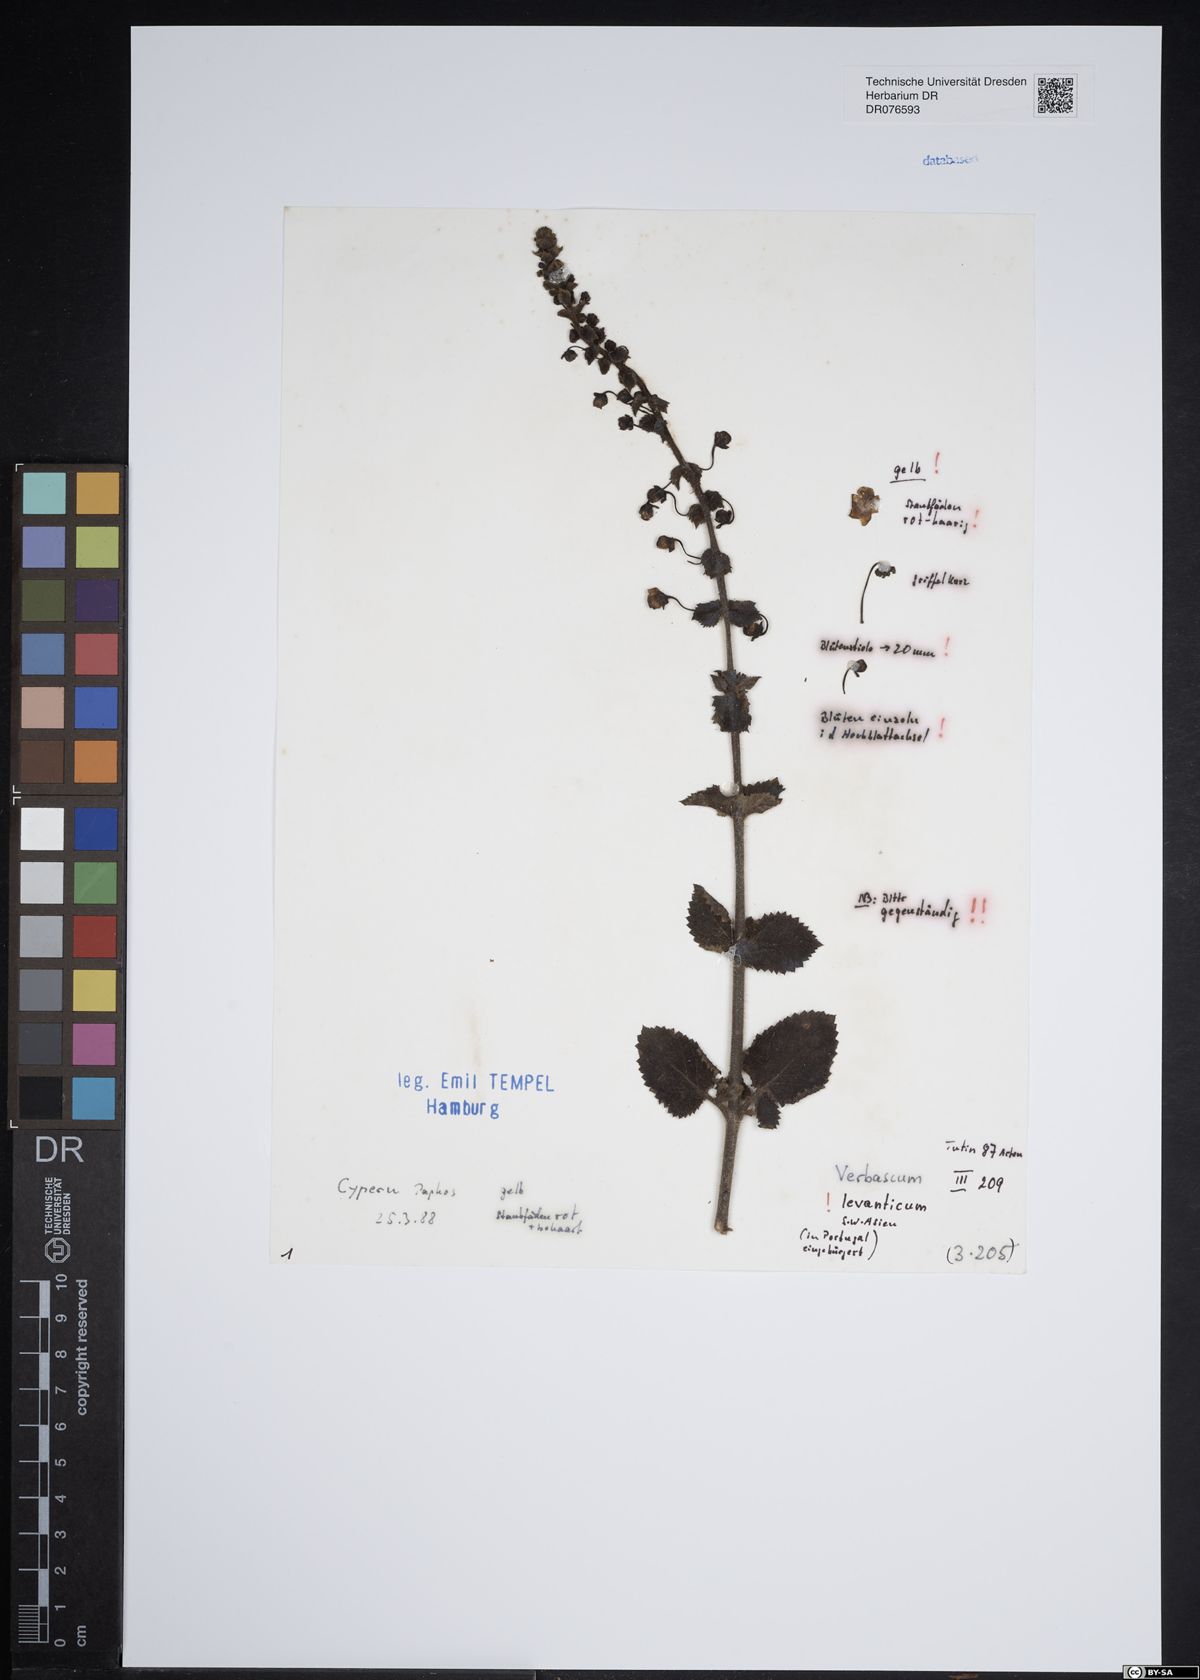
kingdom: Plantae
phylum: Tracheophyta
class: Magnoliopsida
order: Lamiales
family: Scrophulariaceae
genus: Verbascum
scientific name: Verbascum levanticum
